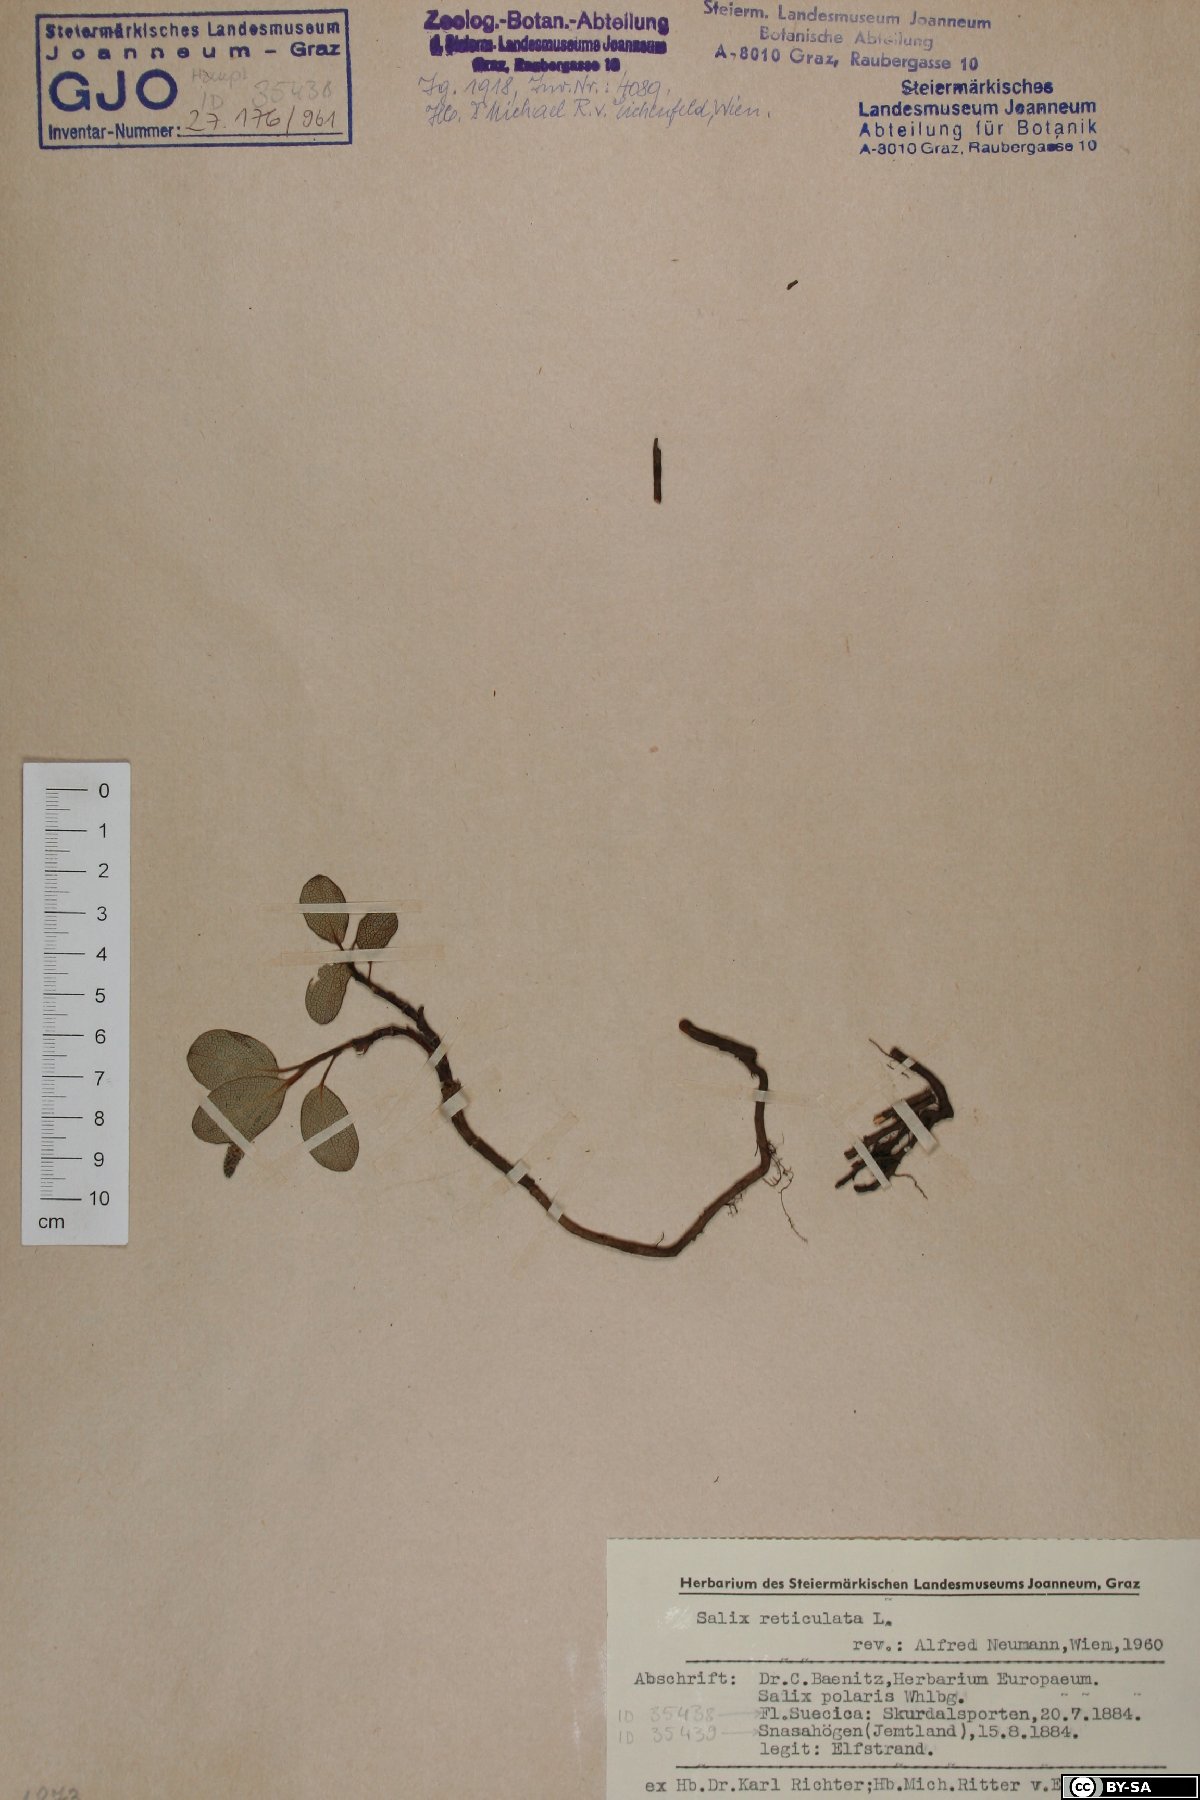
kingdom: Plantae
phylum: Tracheophyta
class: Magnoliopsida
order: Malpighiales
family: Salicaceae
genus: Salix
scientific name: Salix reticulata
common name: Net-leaved willow
